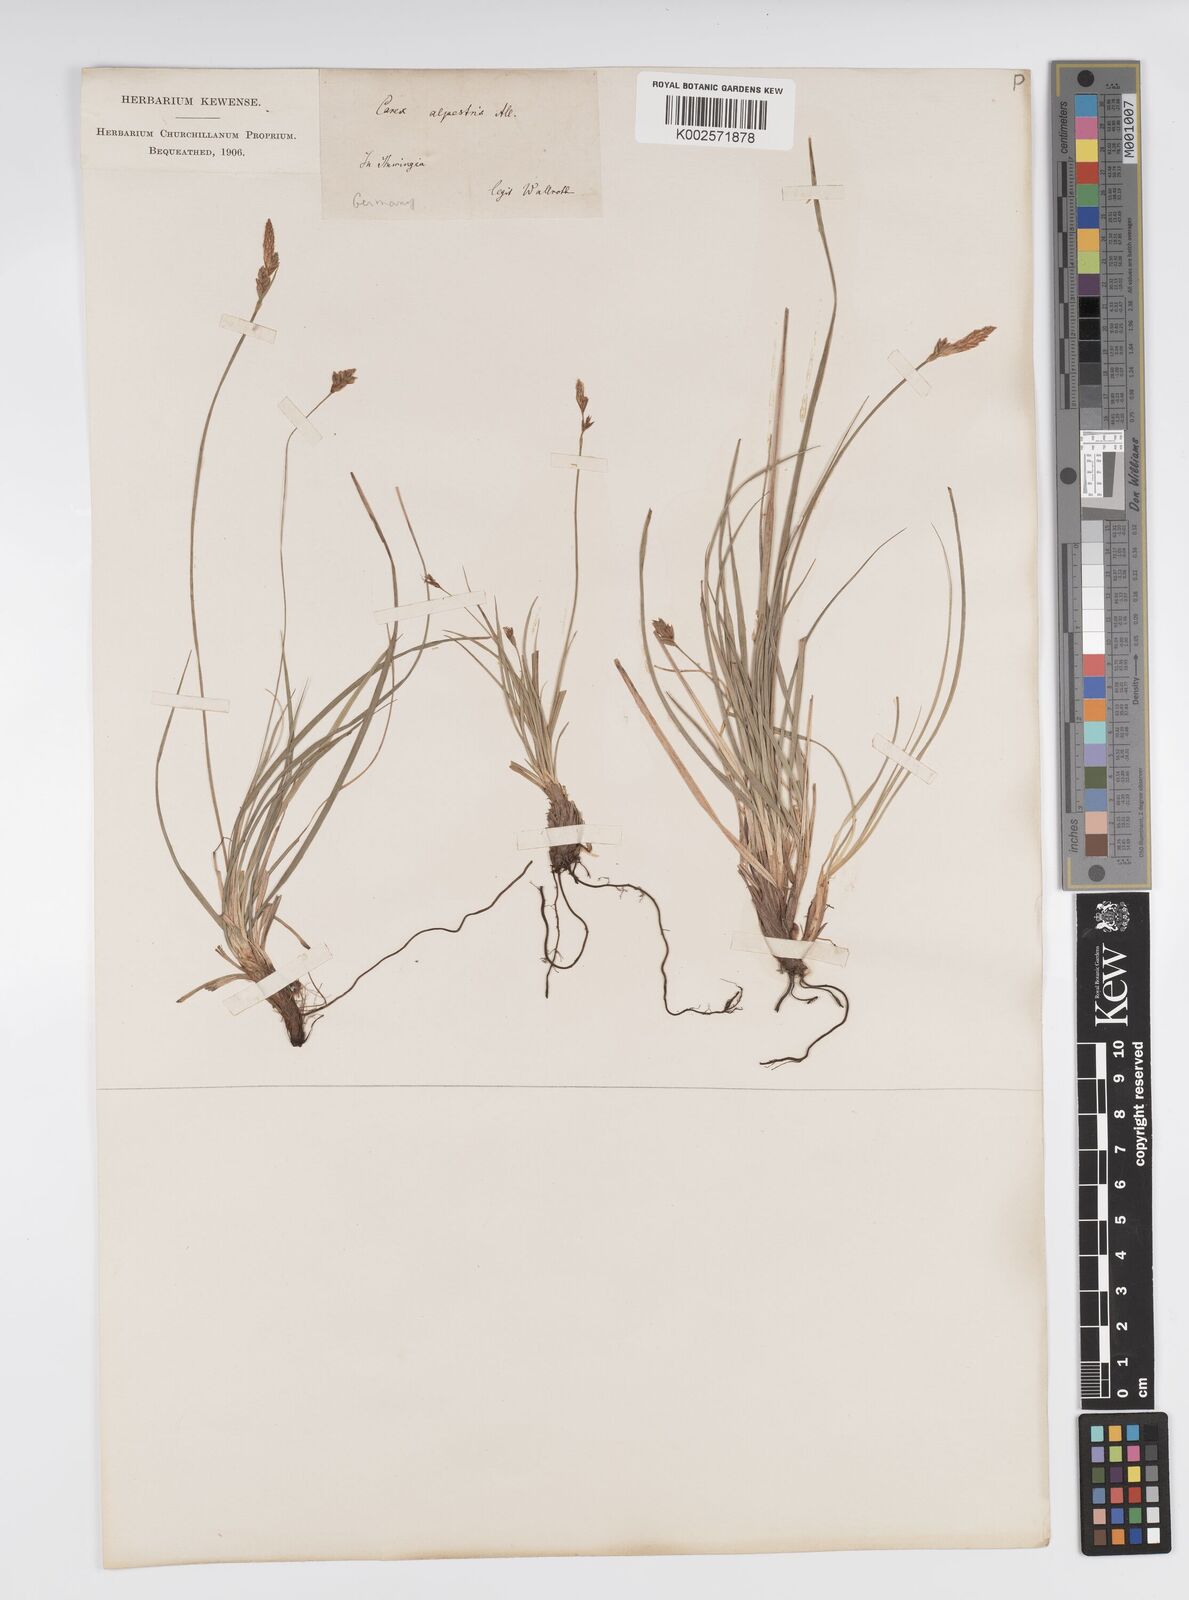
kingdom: Plantae
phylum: Tracheophyta
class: Liliopsida
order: Poales
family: Cyperaceae
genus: Carex
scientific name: Carex halleriana
